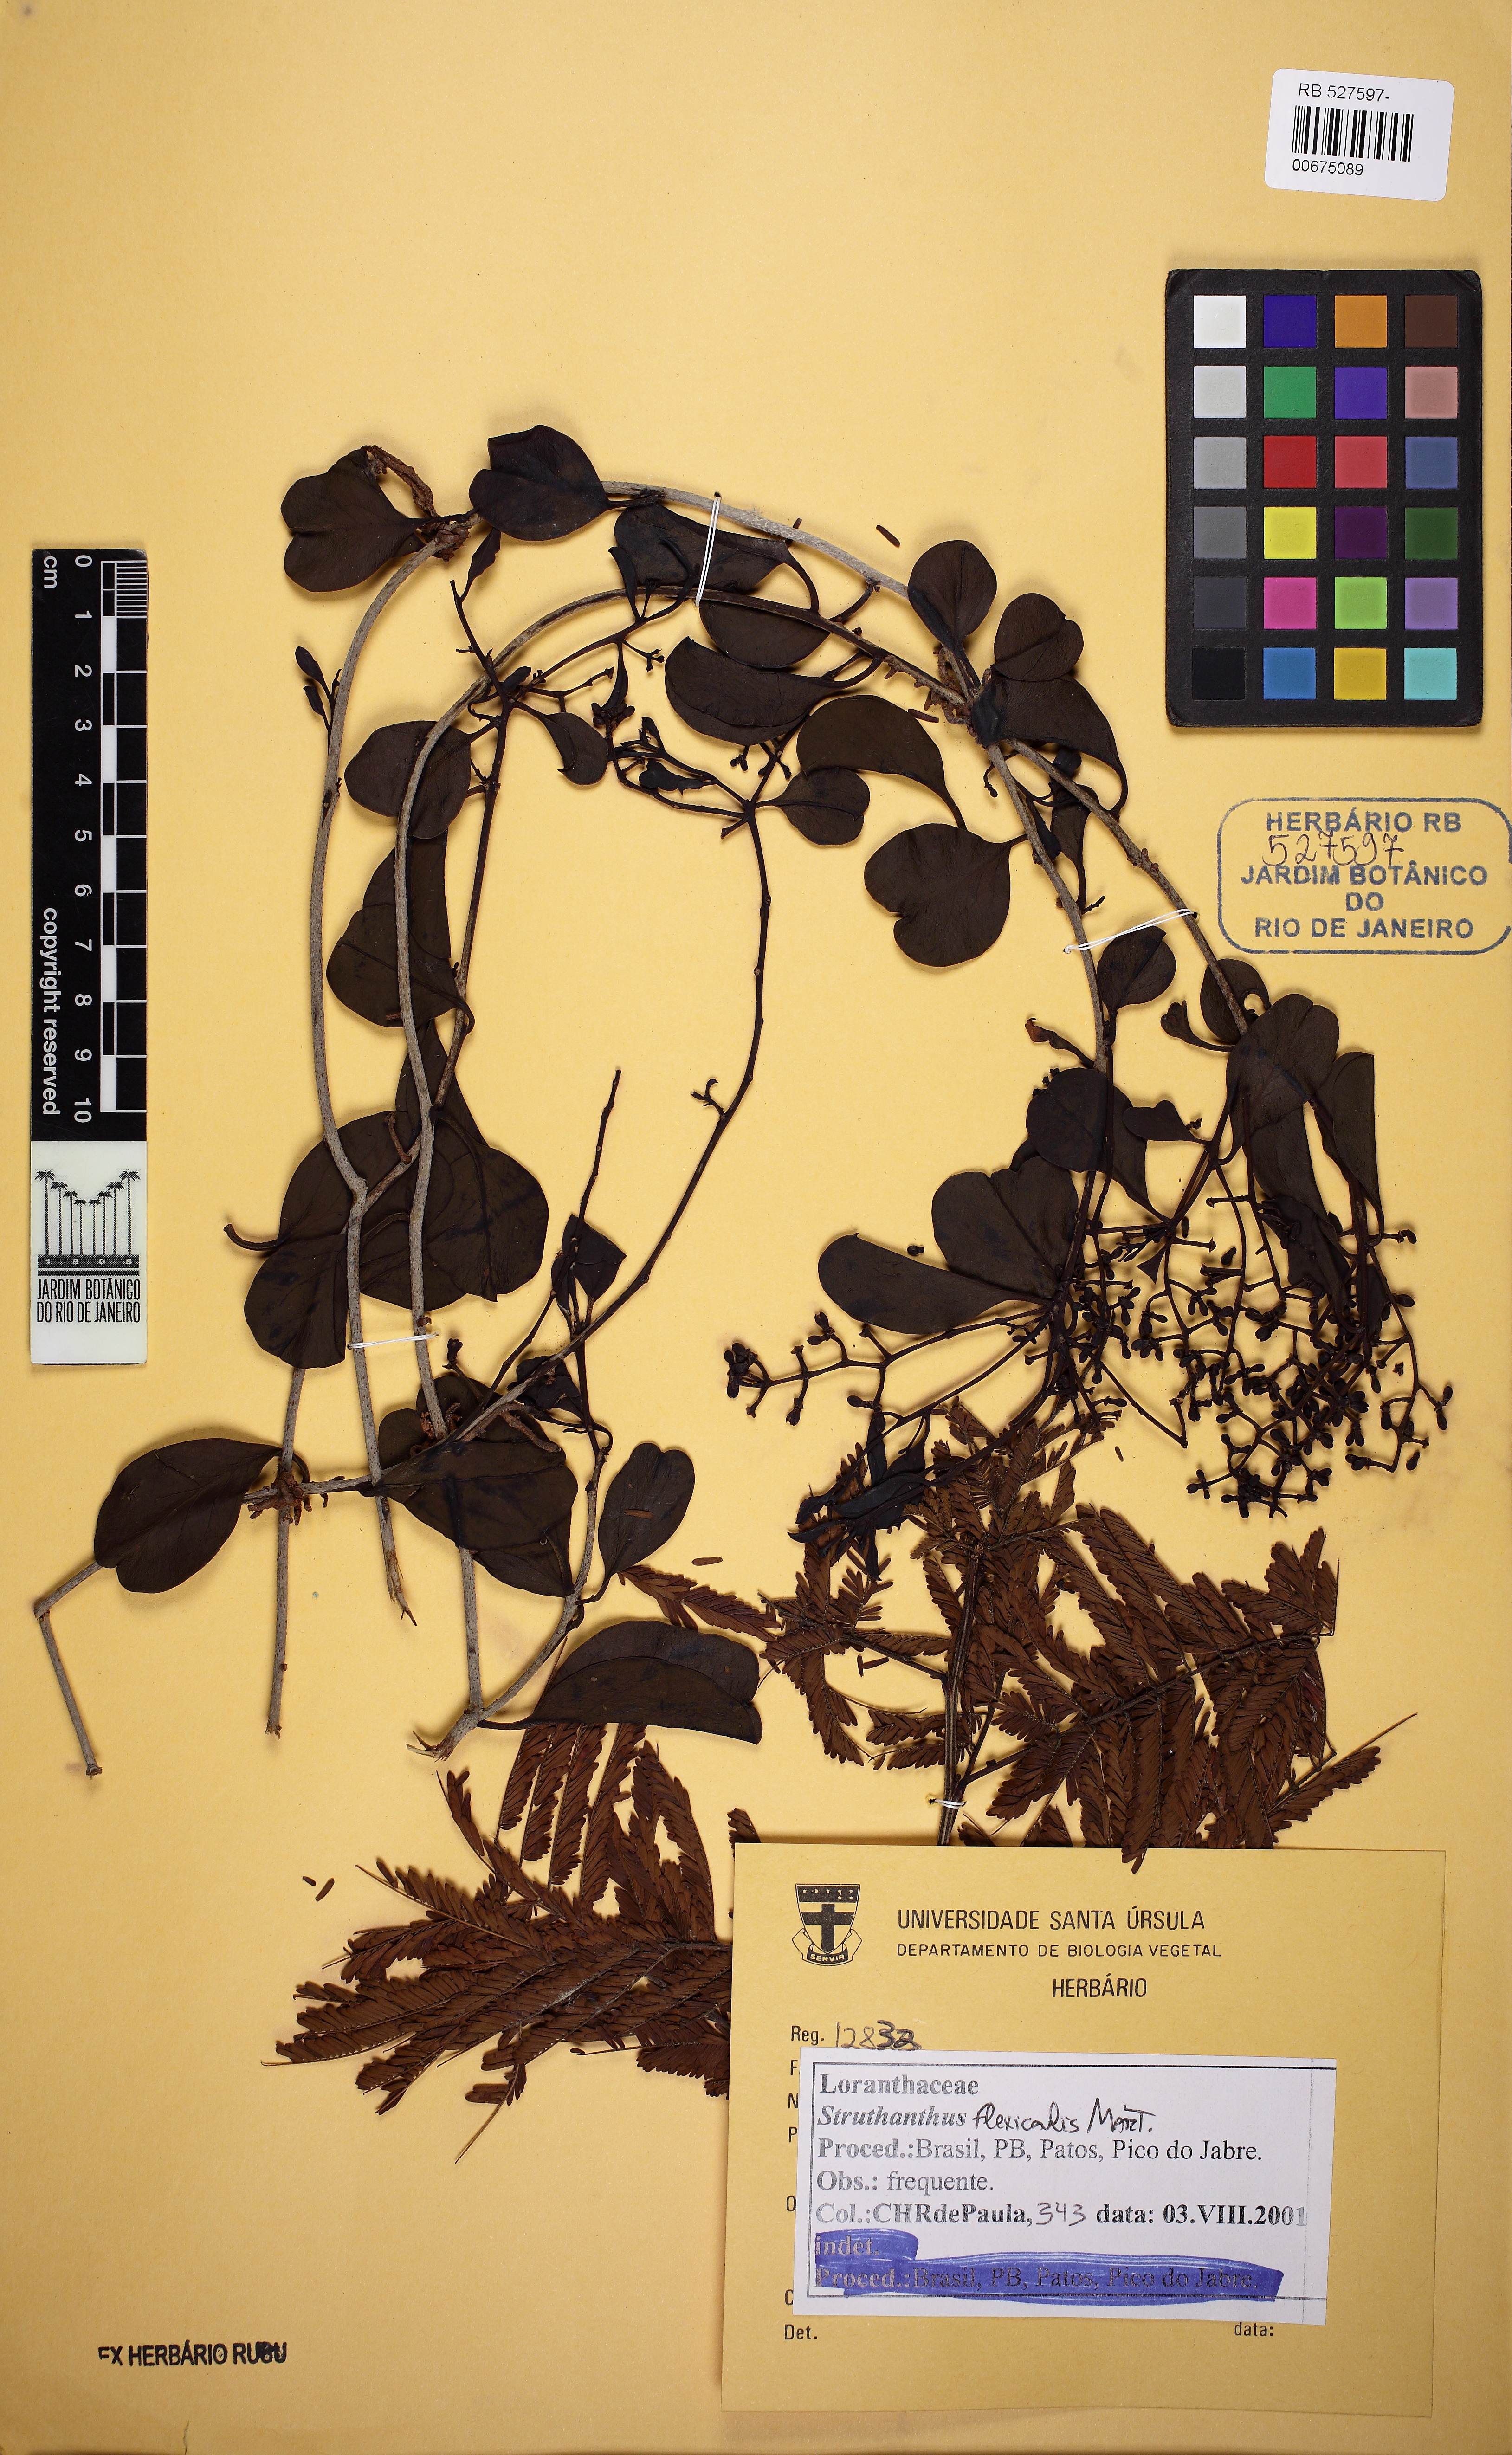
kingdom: Plantae
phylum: Tracheophyta
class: Magnoliopsida
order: Santalales
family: Loranthaceae
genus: Struthanthus
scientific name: Struthanthus flexicaulis
